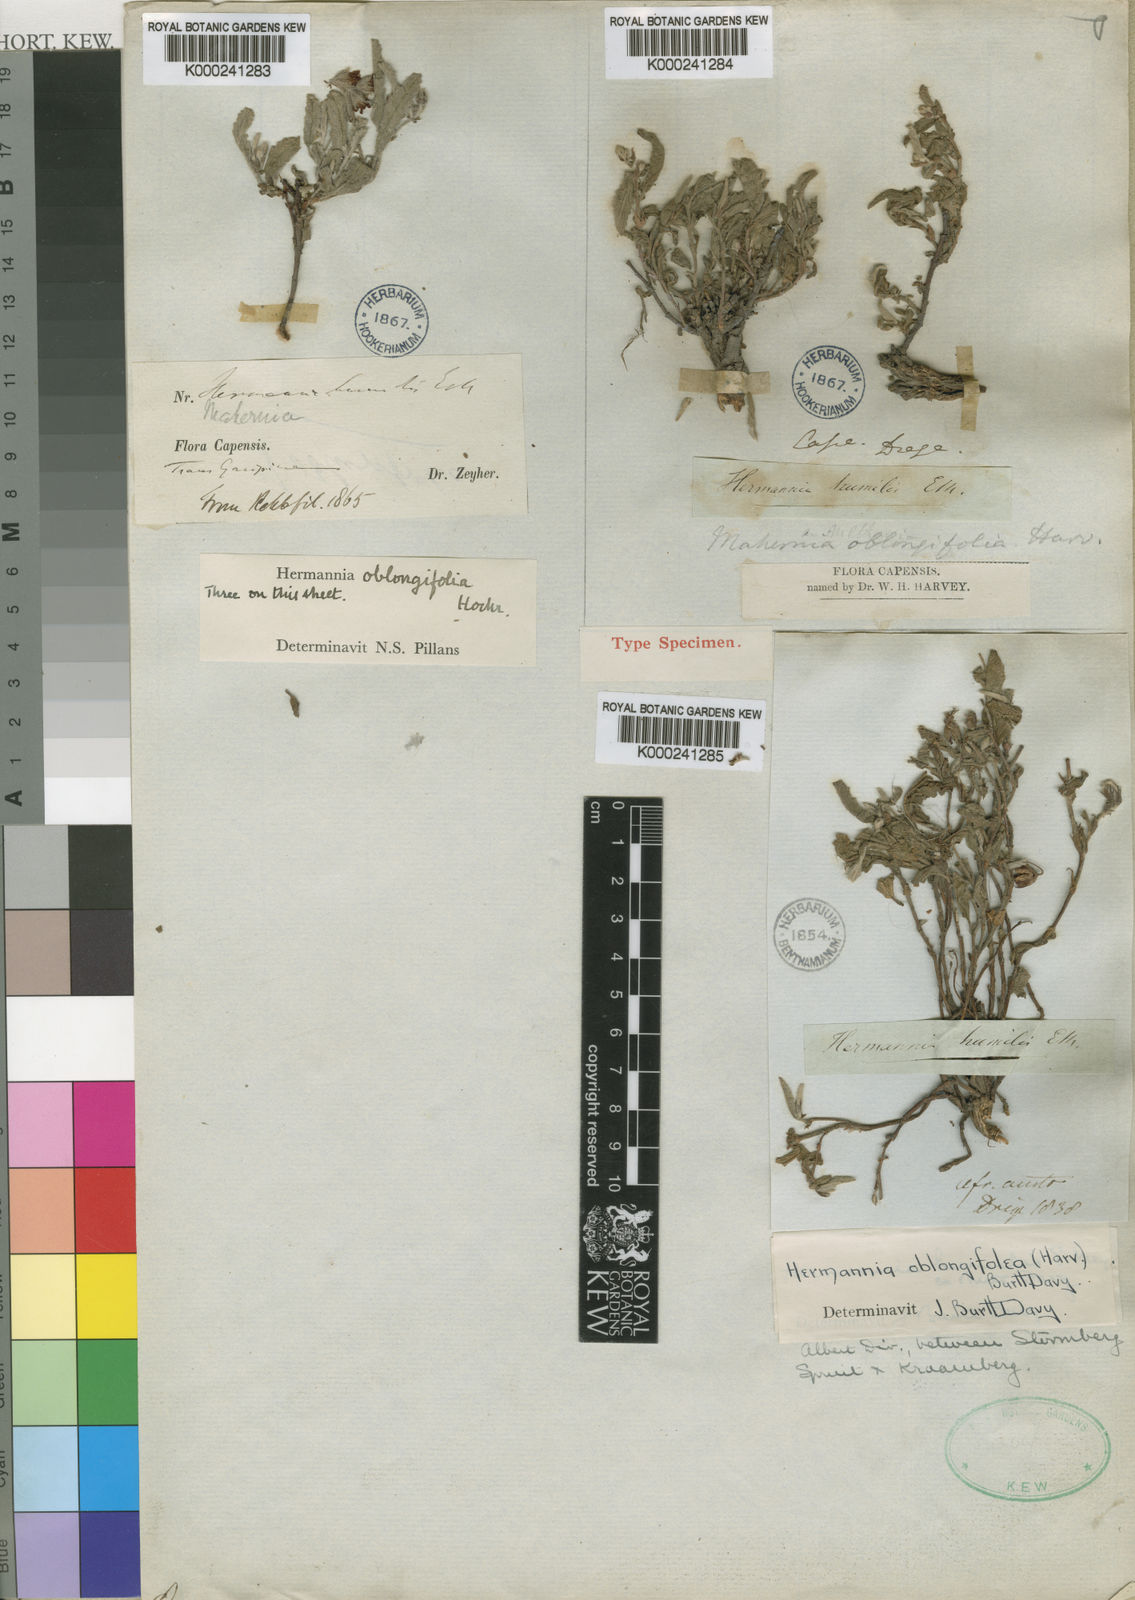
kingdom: Plantae
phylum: Tracheophyta
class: Magnoliopsida
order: Malvales
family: Malvaceae
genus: Hermannia
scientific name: Hermannia oblongifolia
